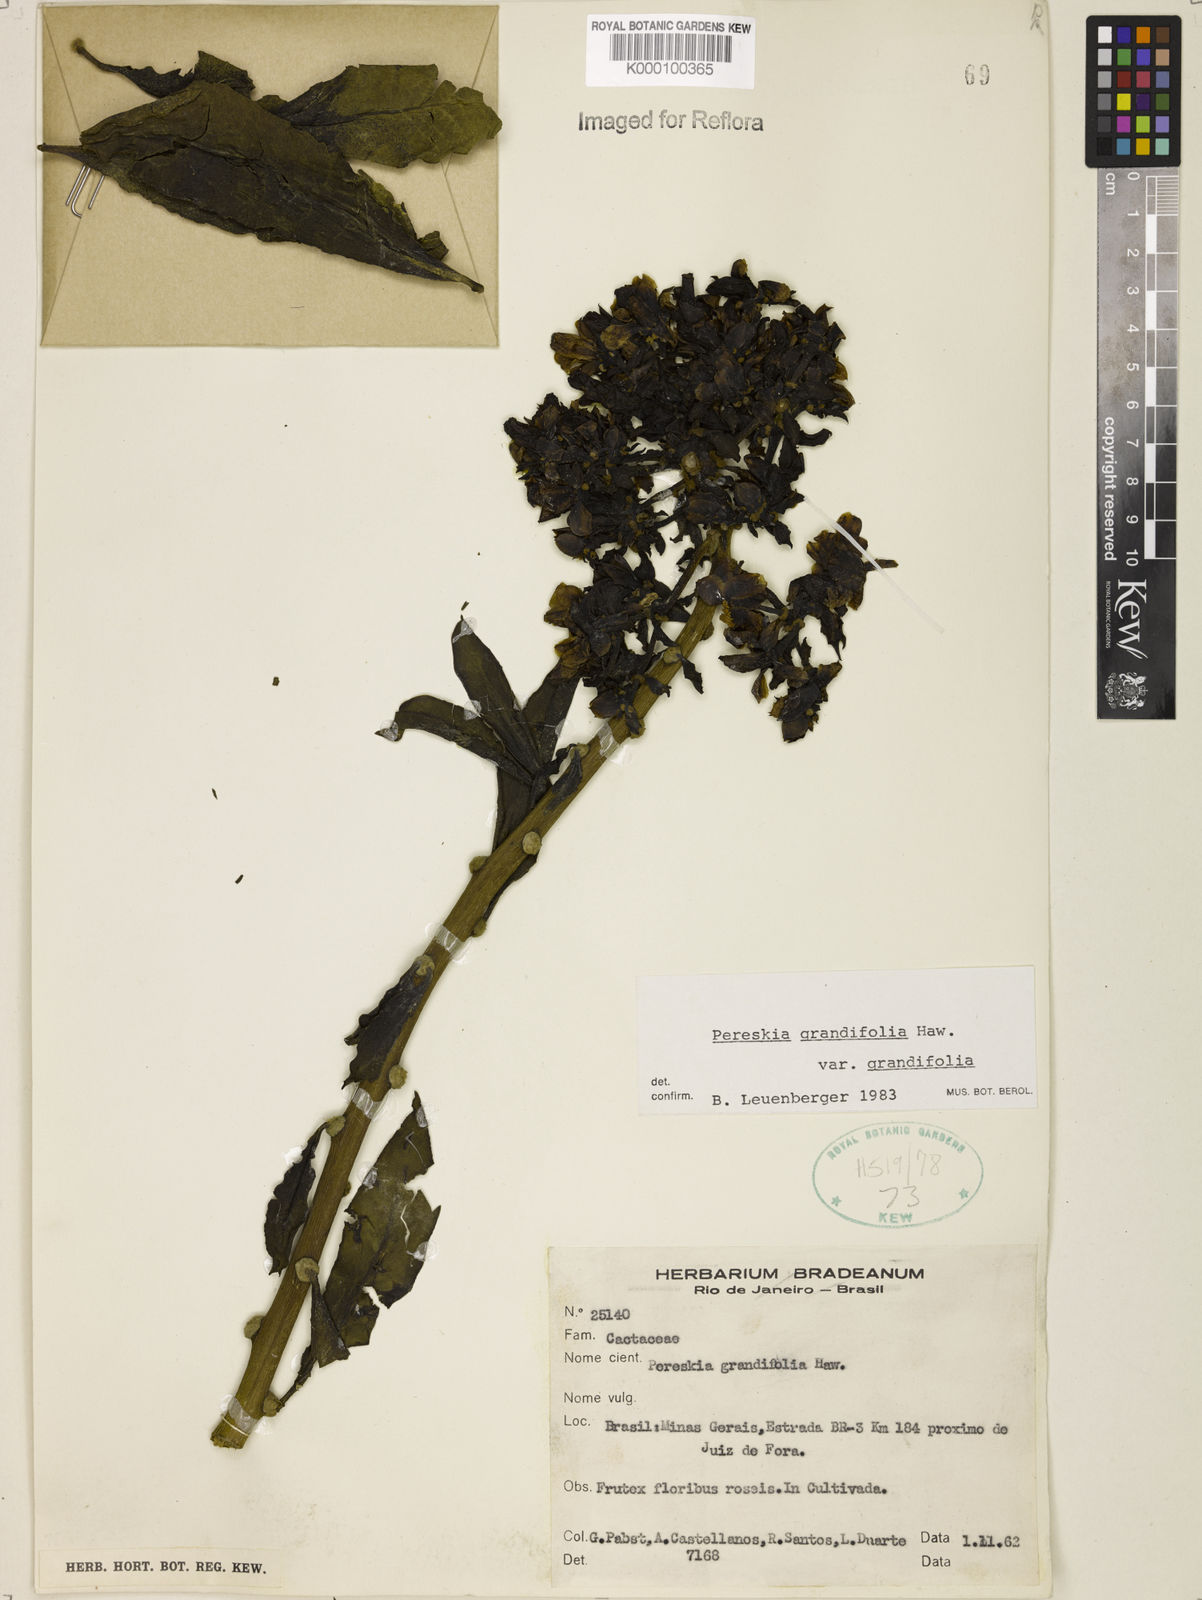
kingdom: Plantae
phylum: Tracheophyta
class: Magnoliopsida
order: Caryophyllales
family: Cactaceae
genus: Pereskia
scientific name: Pereskia grandifolia
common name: Rose cactus
